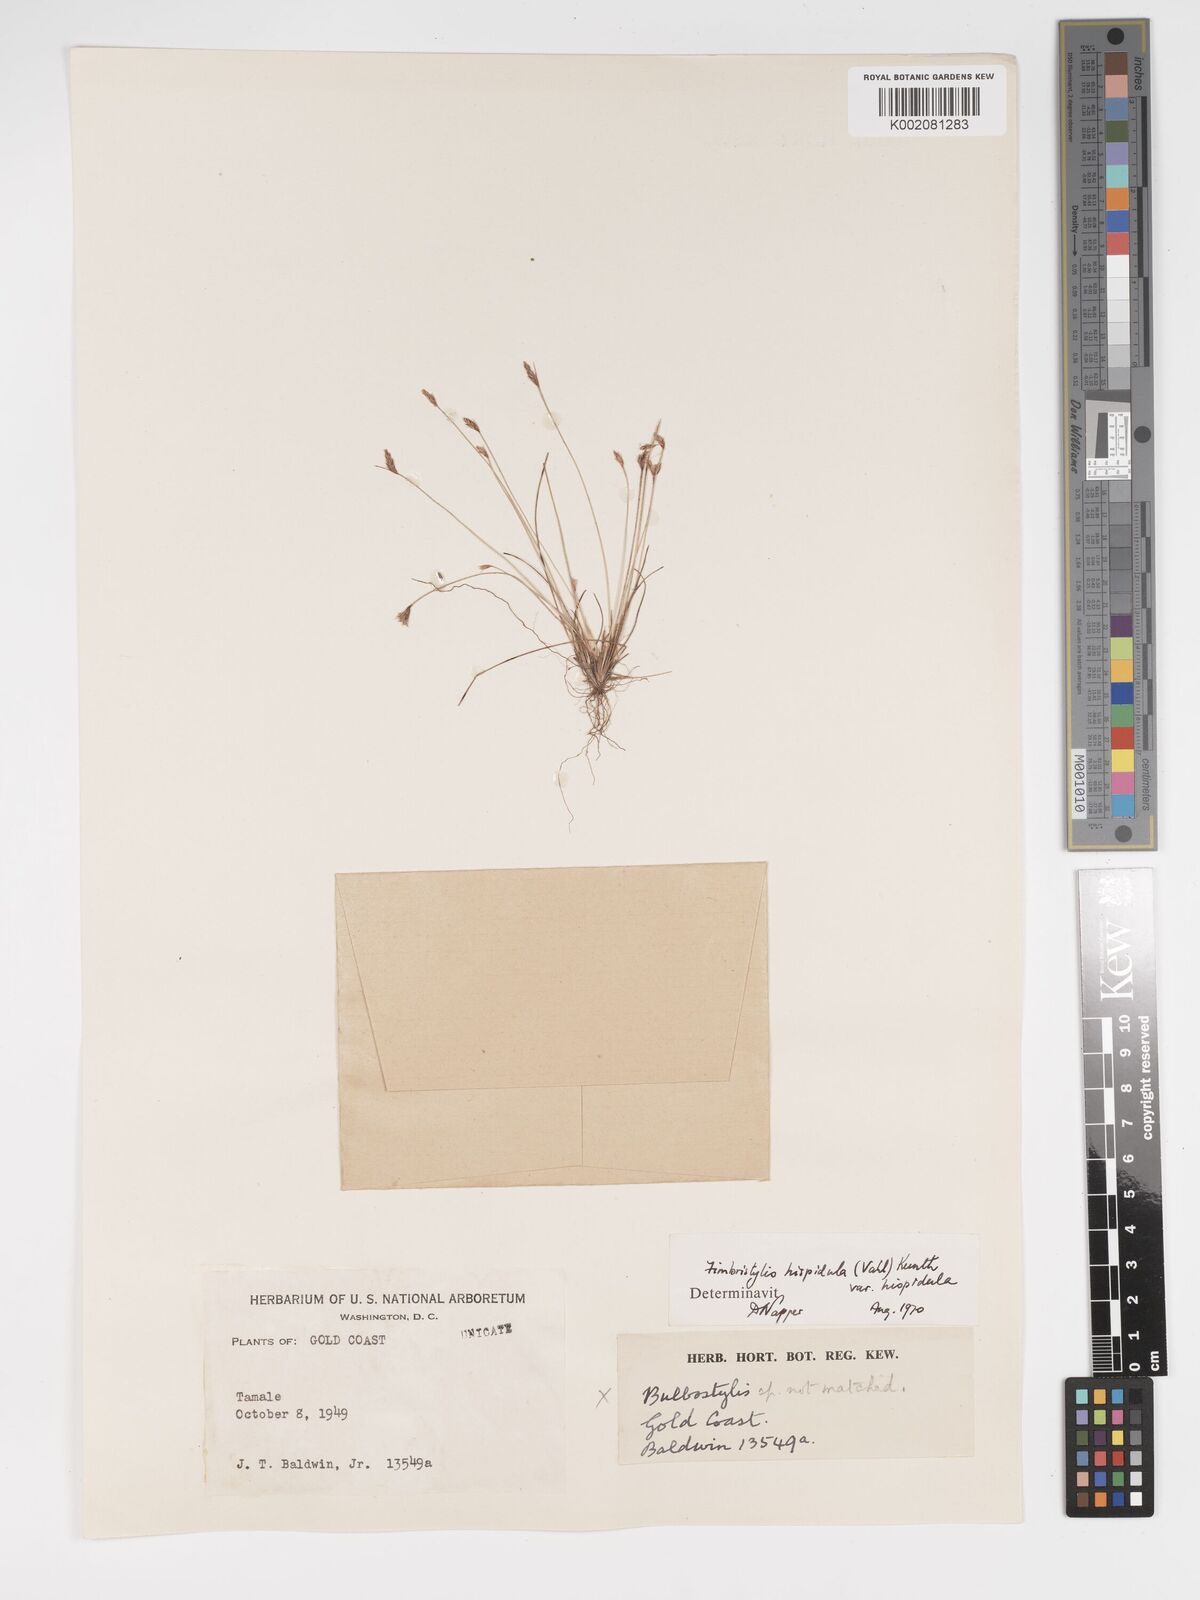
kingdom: Plantae
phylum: Tracheophyta
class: Liliopsida
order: Poales
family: Cyperaceae
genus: Bulbostylis
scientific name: Bulbostylis
